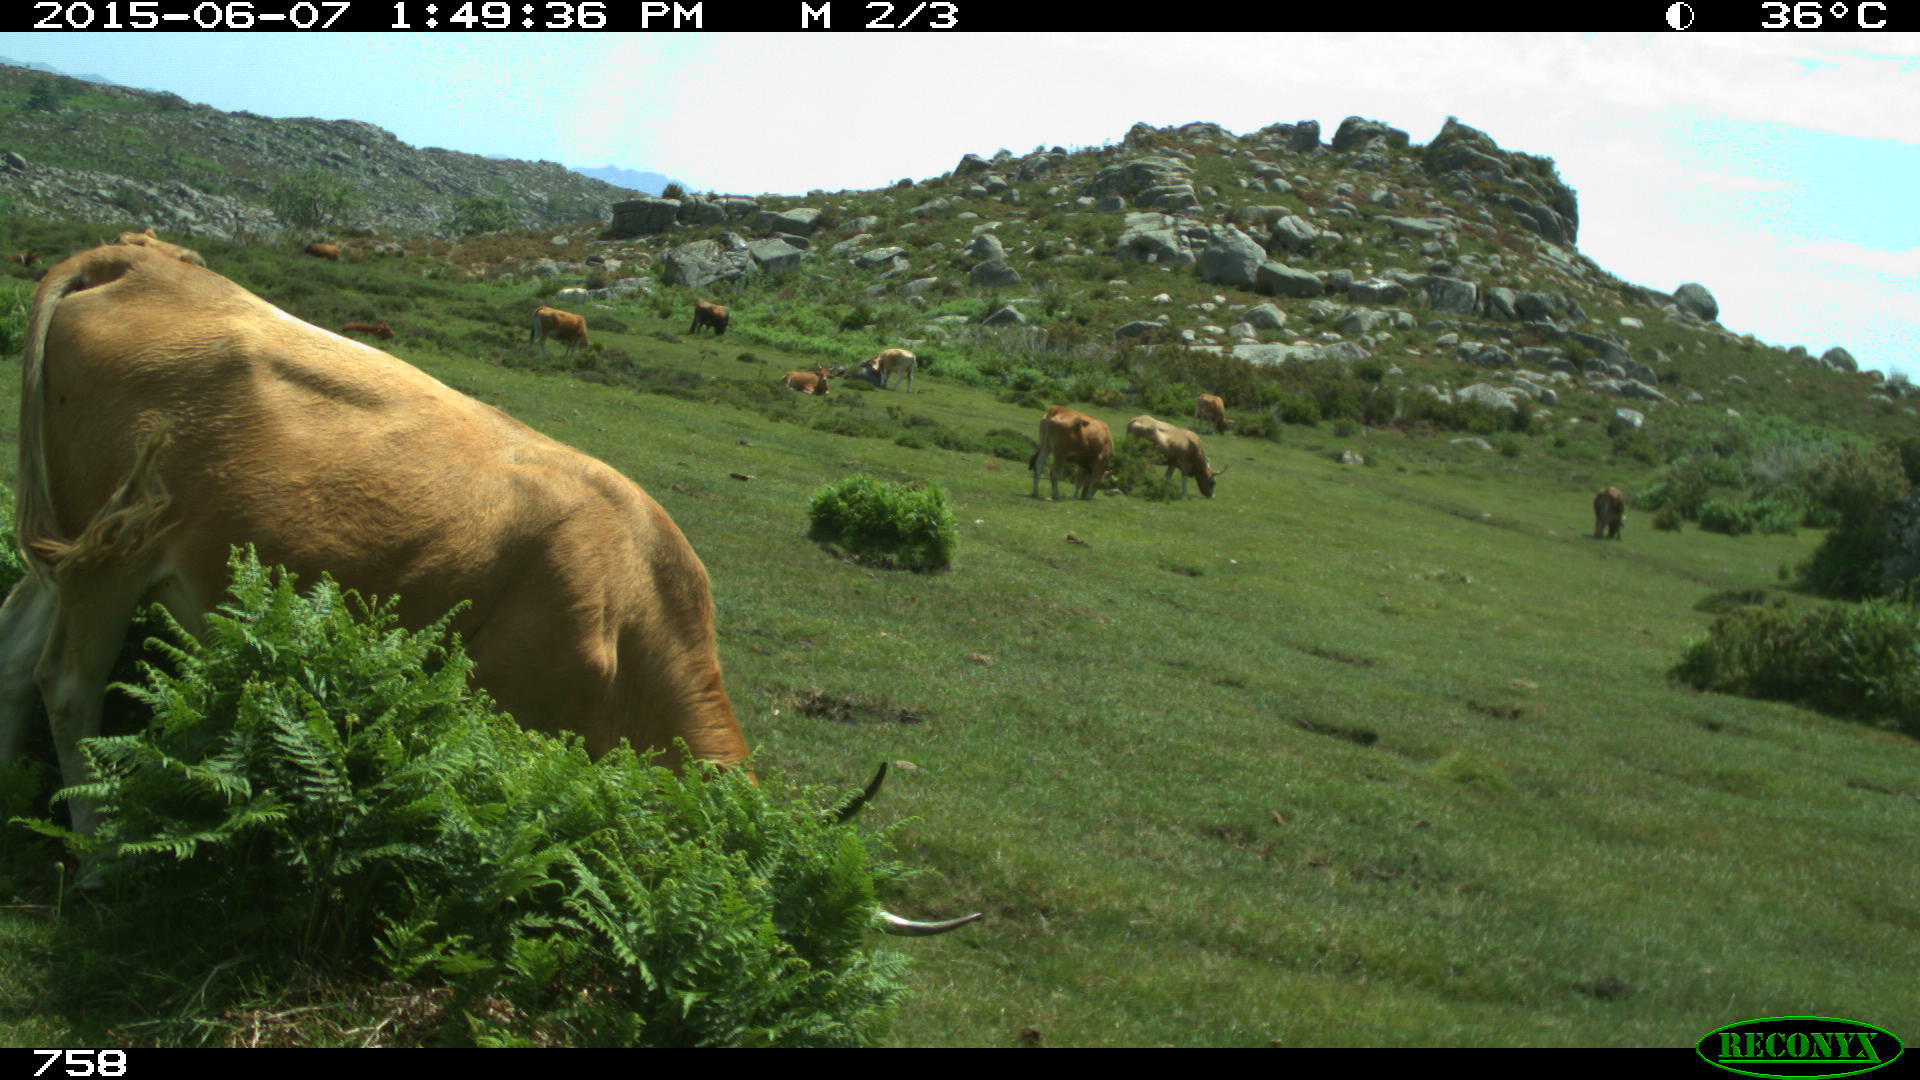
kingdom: Animalia
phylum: Chordata
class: Mammalia
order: Artiodactyla
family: Bovidae
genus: Bos
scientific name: Bos taurus
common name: Domesticated cattle
